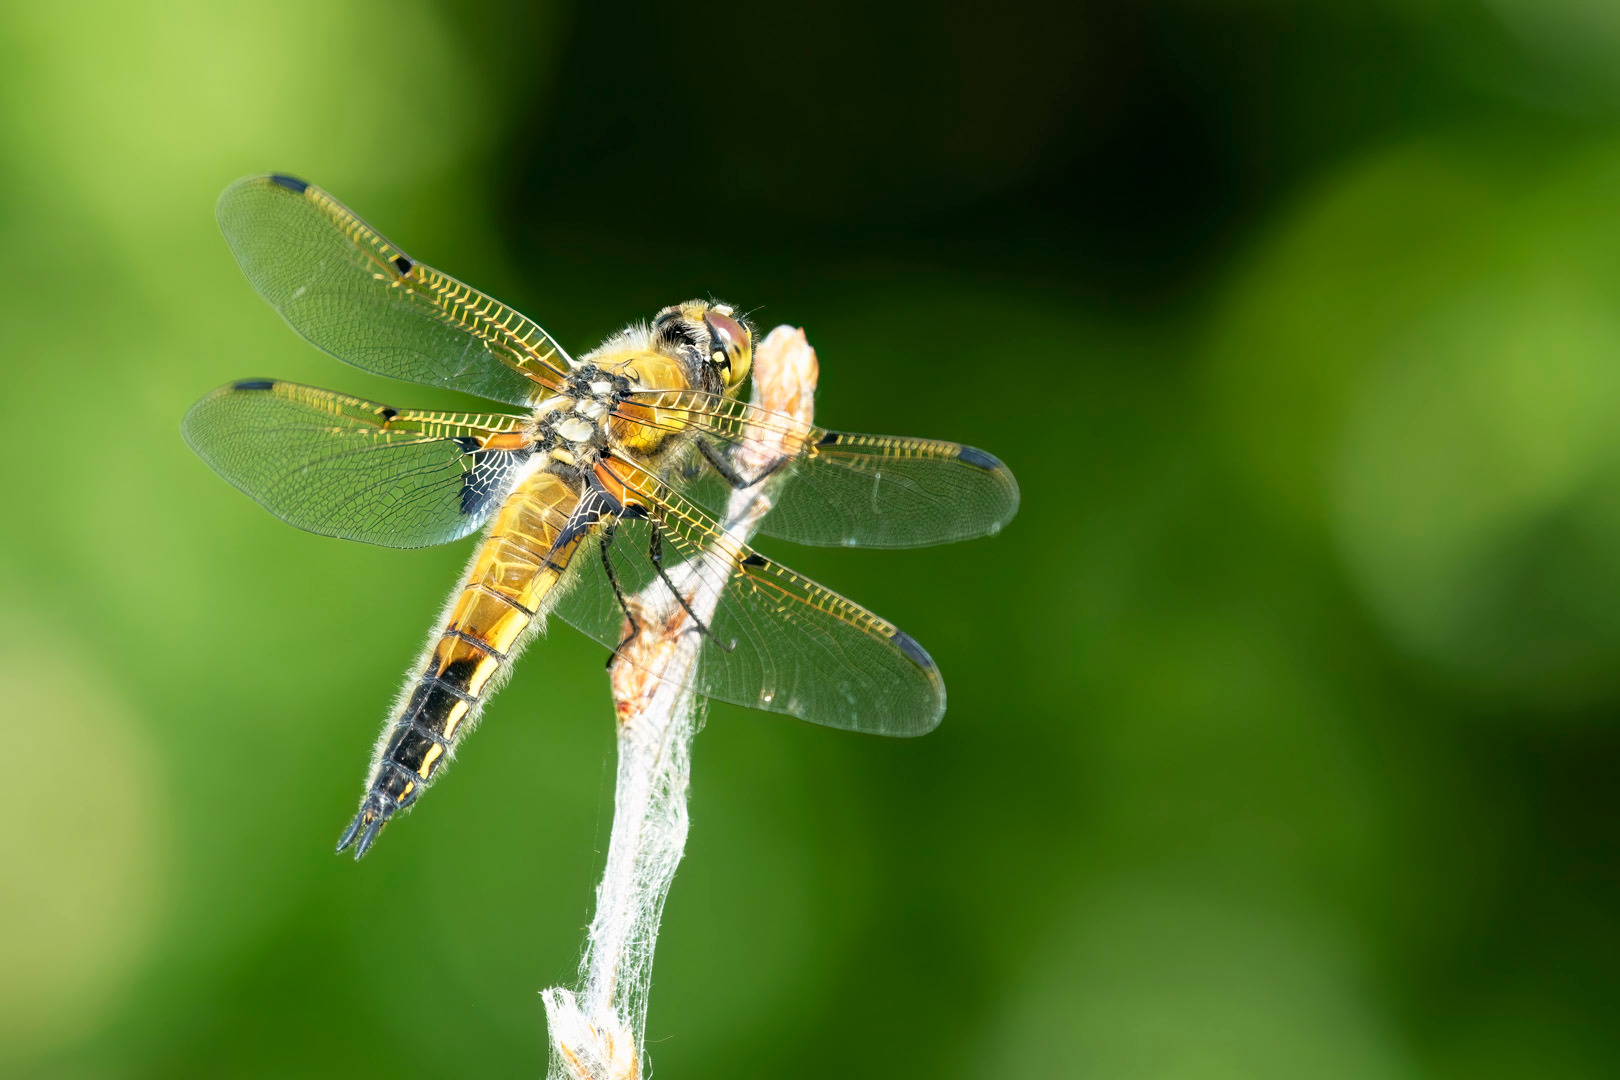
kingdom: Animalia
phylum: Arthropoda
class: Insecta
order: Odonata
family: Libellulidae
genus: Libellula
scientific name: Libellula quadrimaculata
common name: Fireplettet libel
